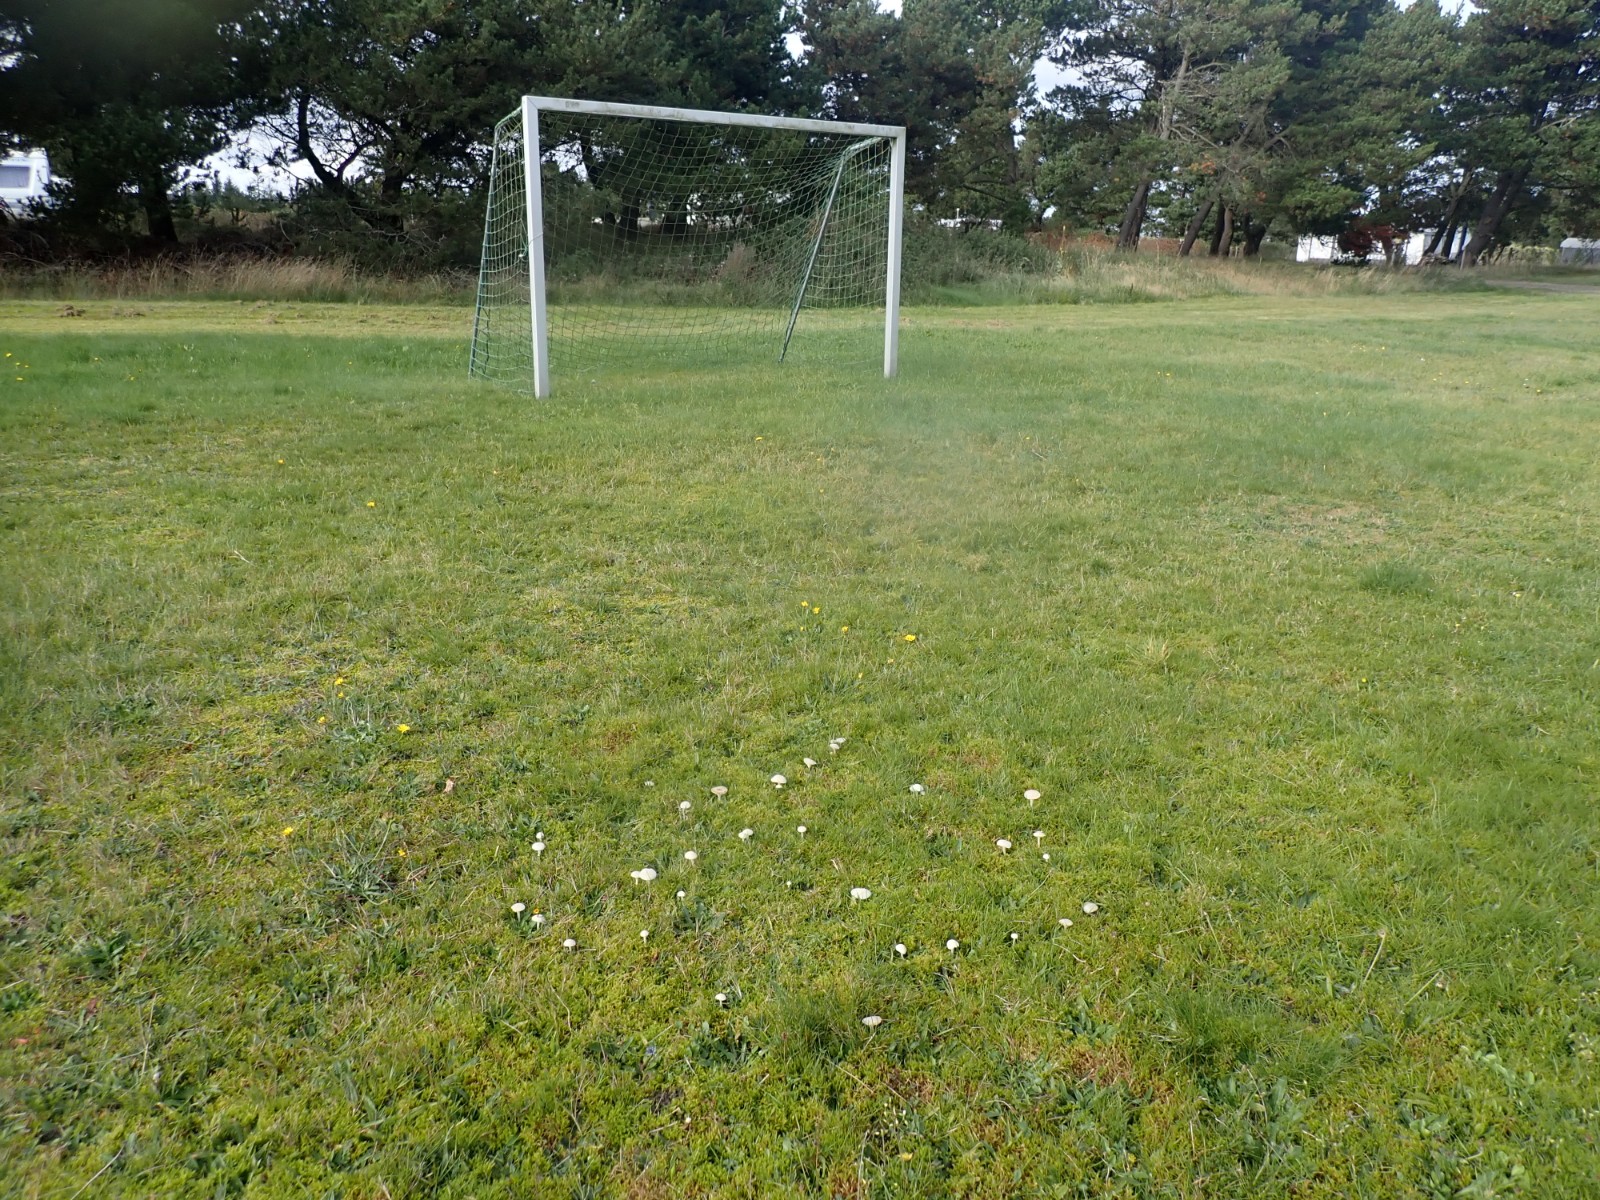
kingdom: Fungi
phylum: Basidiomycota
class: Agaricomycetes
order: Agaricales
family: Hygrophoraceae
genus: Cuphophyllus
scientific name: Cuphophyllus virgineus
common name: snehvid vokshat
